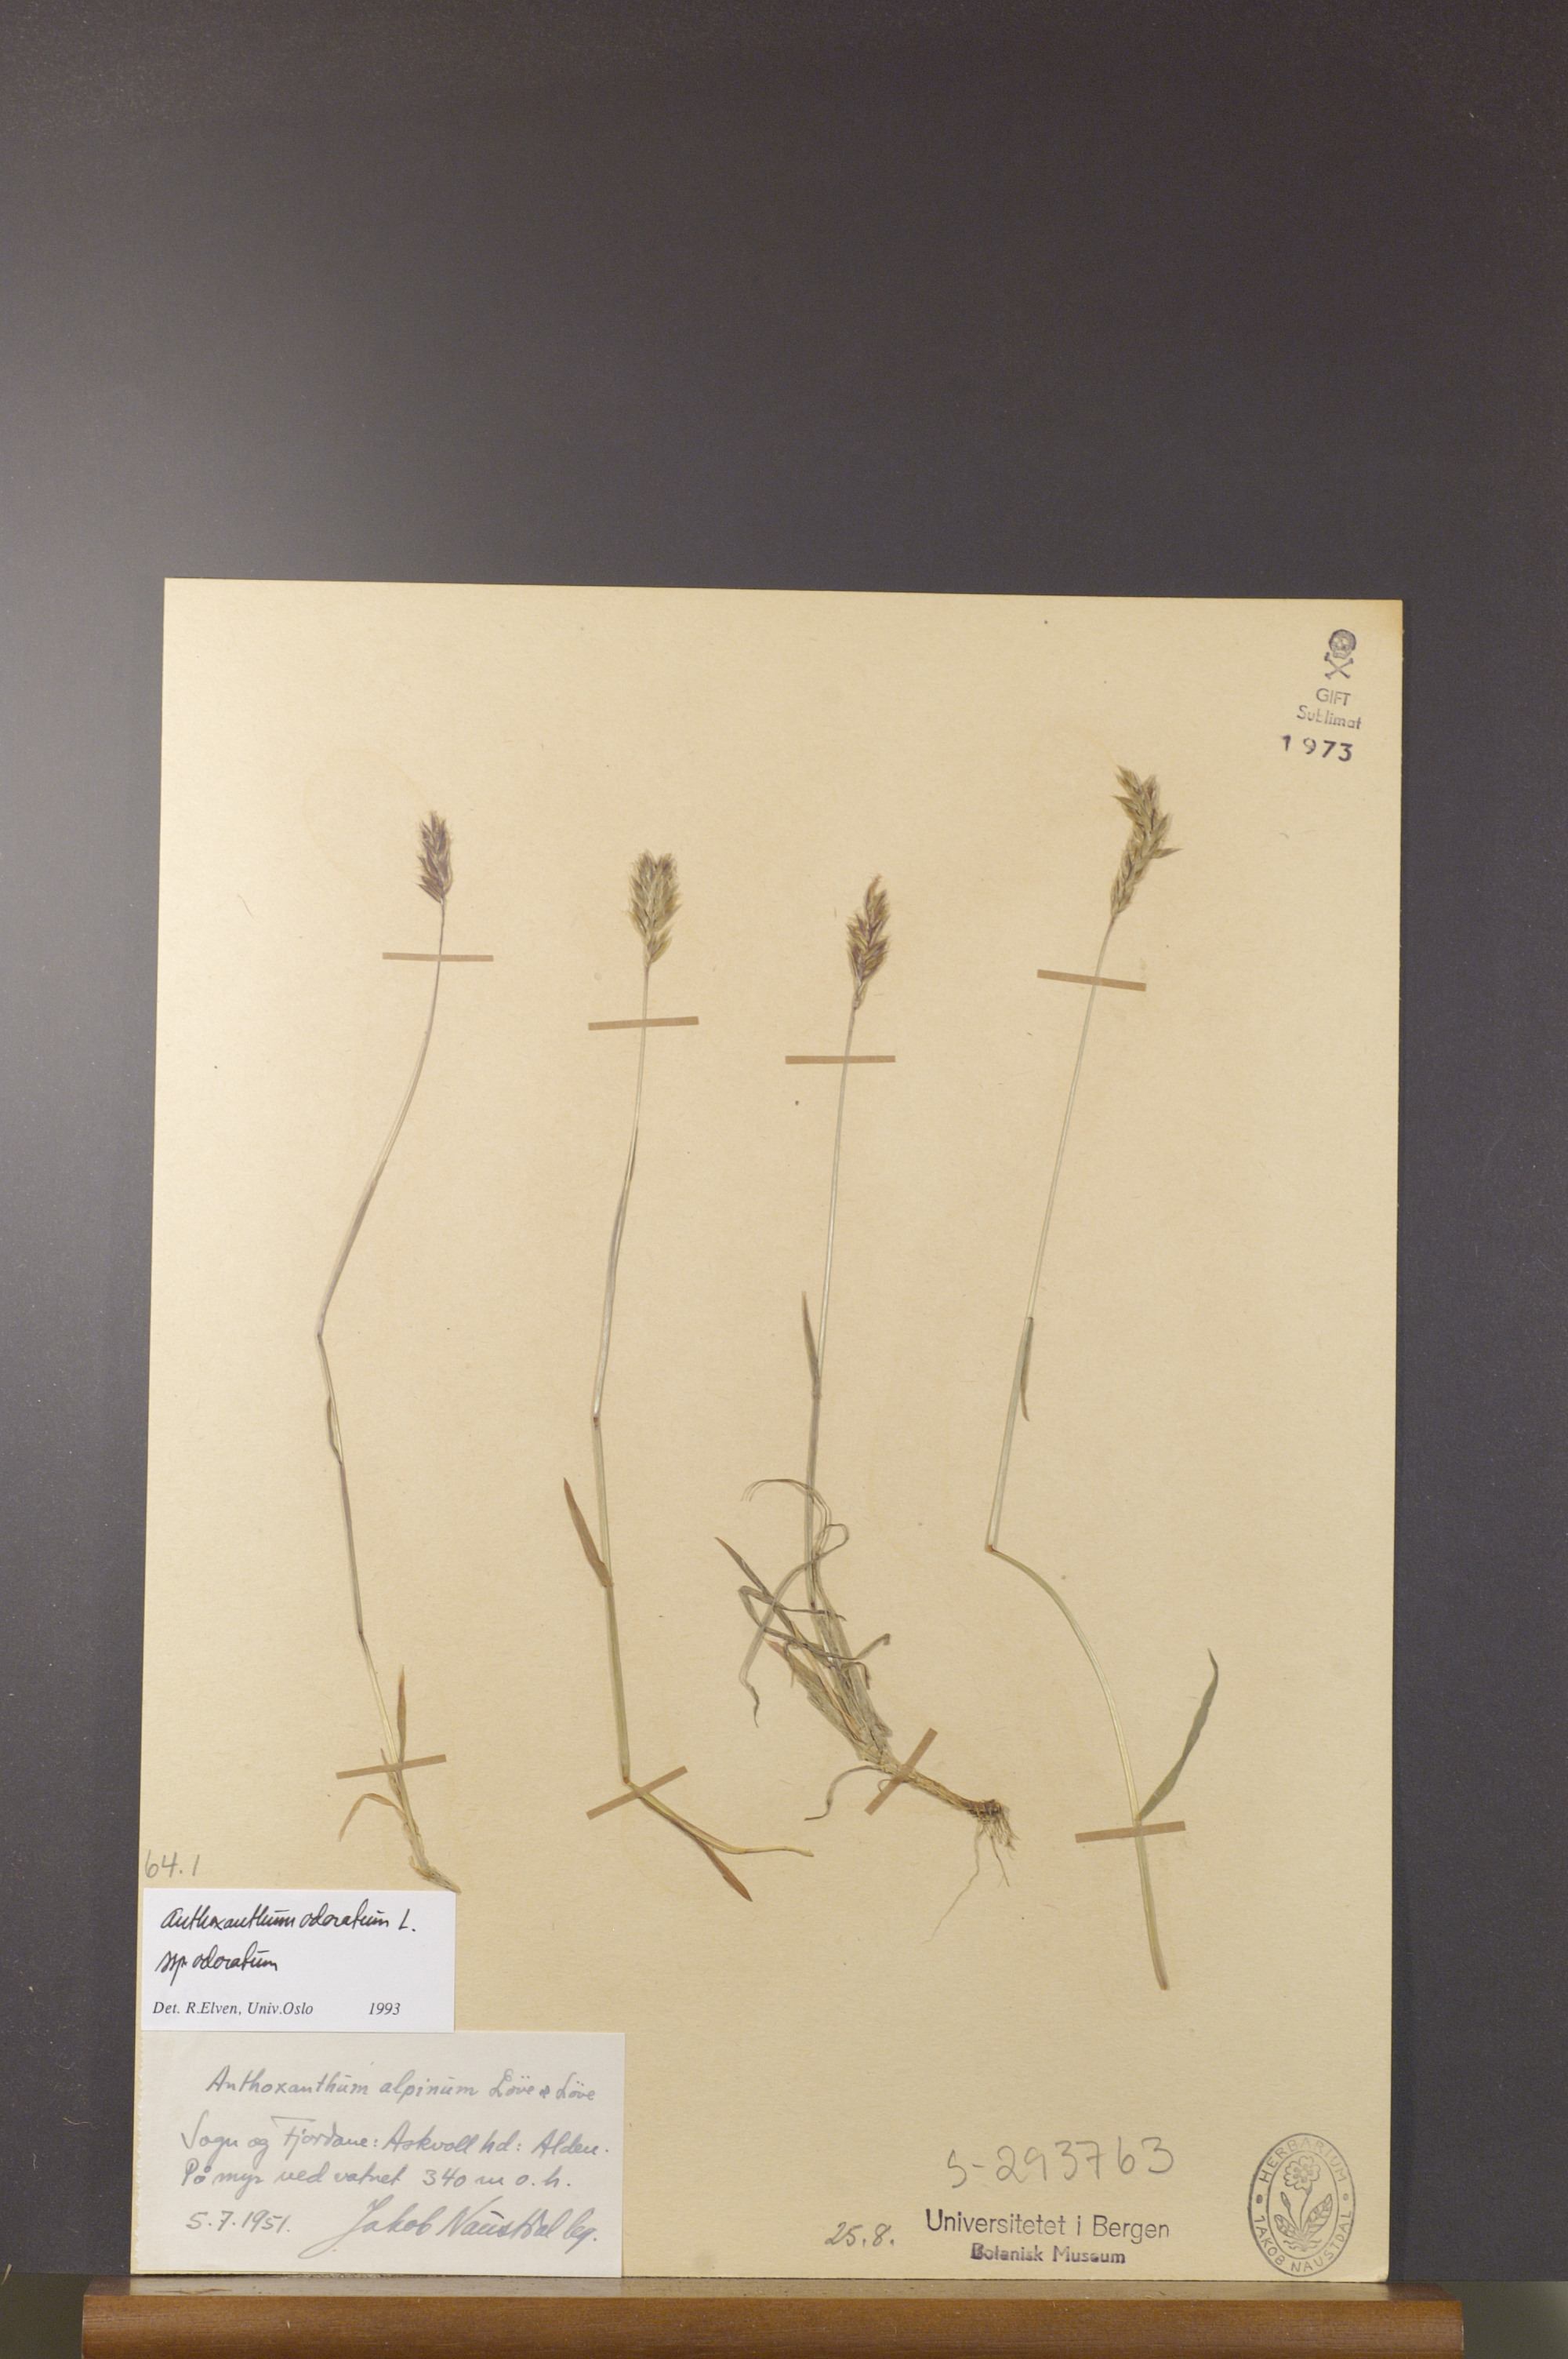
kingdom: Plantae
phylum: Tracheophyta
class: Liliopsida
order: Poales
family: Poaceae
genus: Anthoxanthum
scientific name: Anthoxanthum odoratum
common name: Sweet vernalgrass
